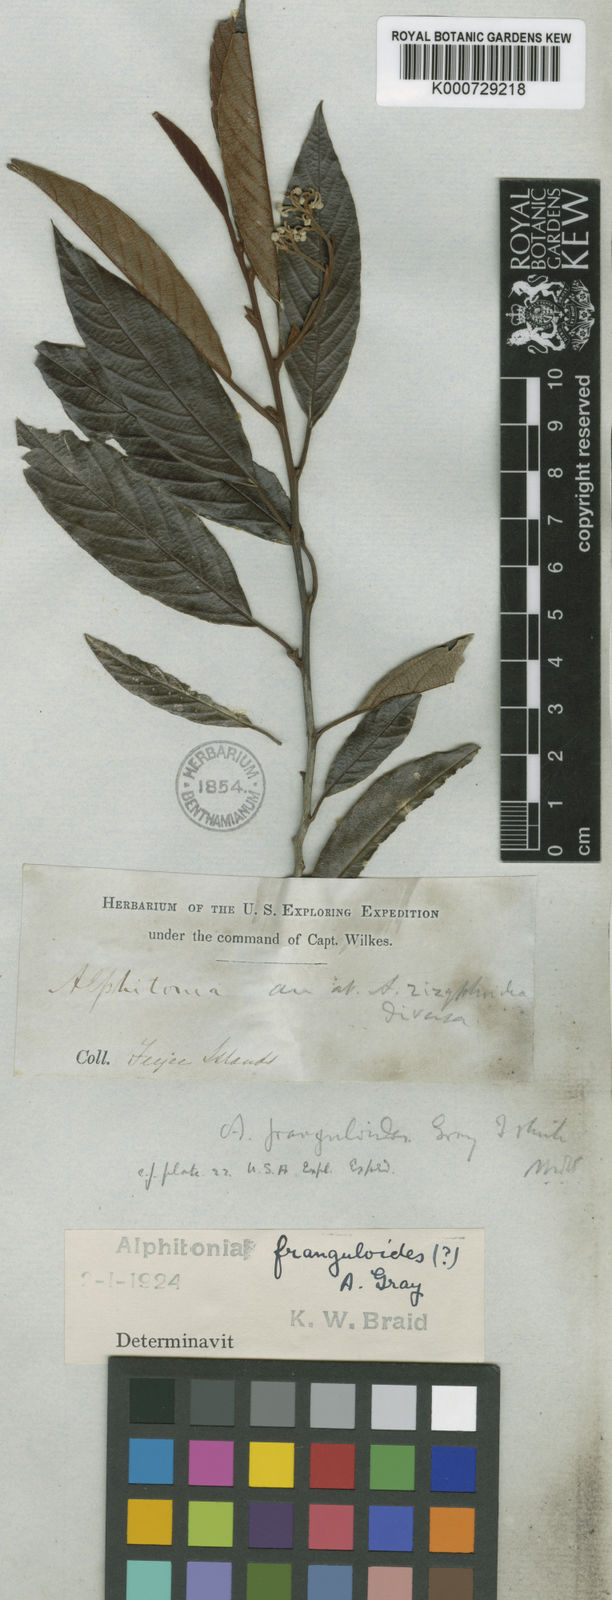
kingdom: Plantae
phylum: Tracheophyta
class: Magnoliopsida
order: Rosales
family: Rhamnaceae
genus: Alphitonia
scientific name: Alphitonia franguloides
